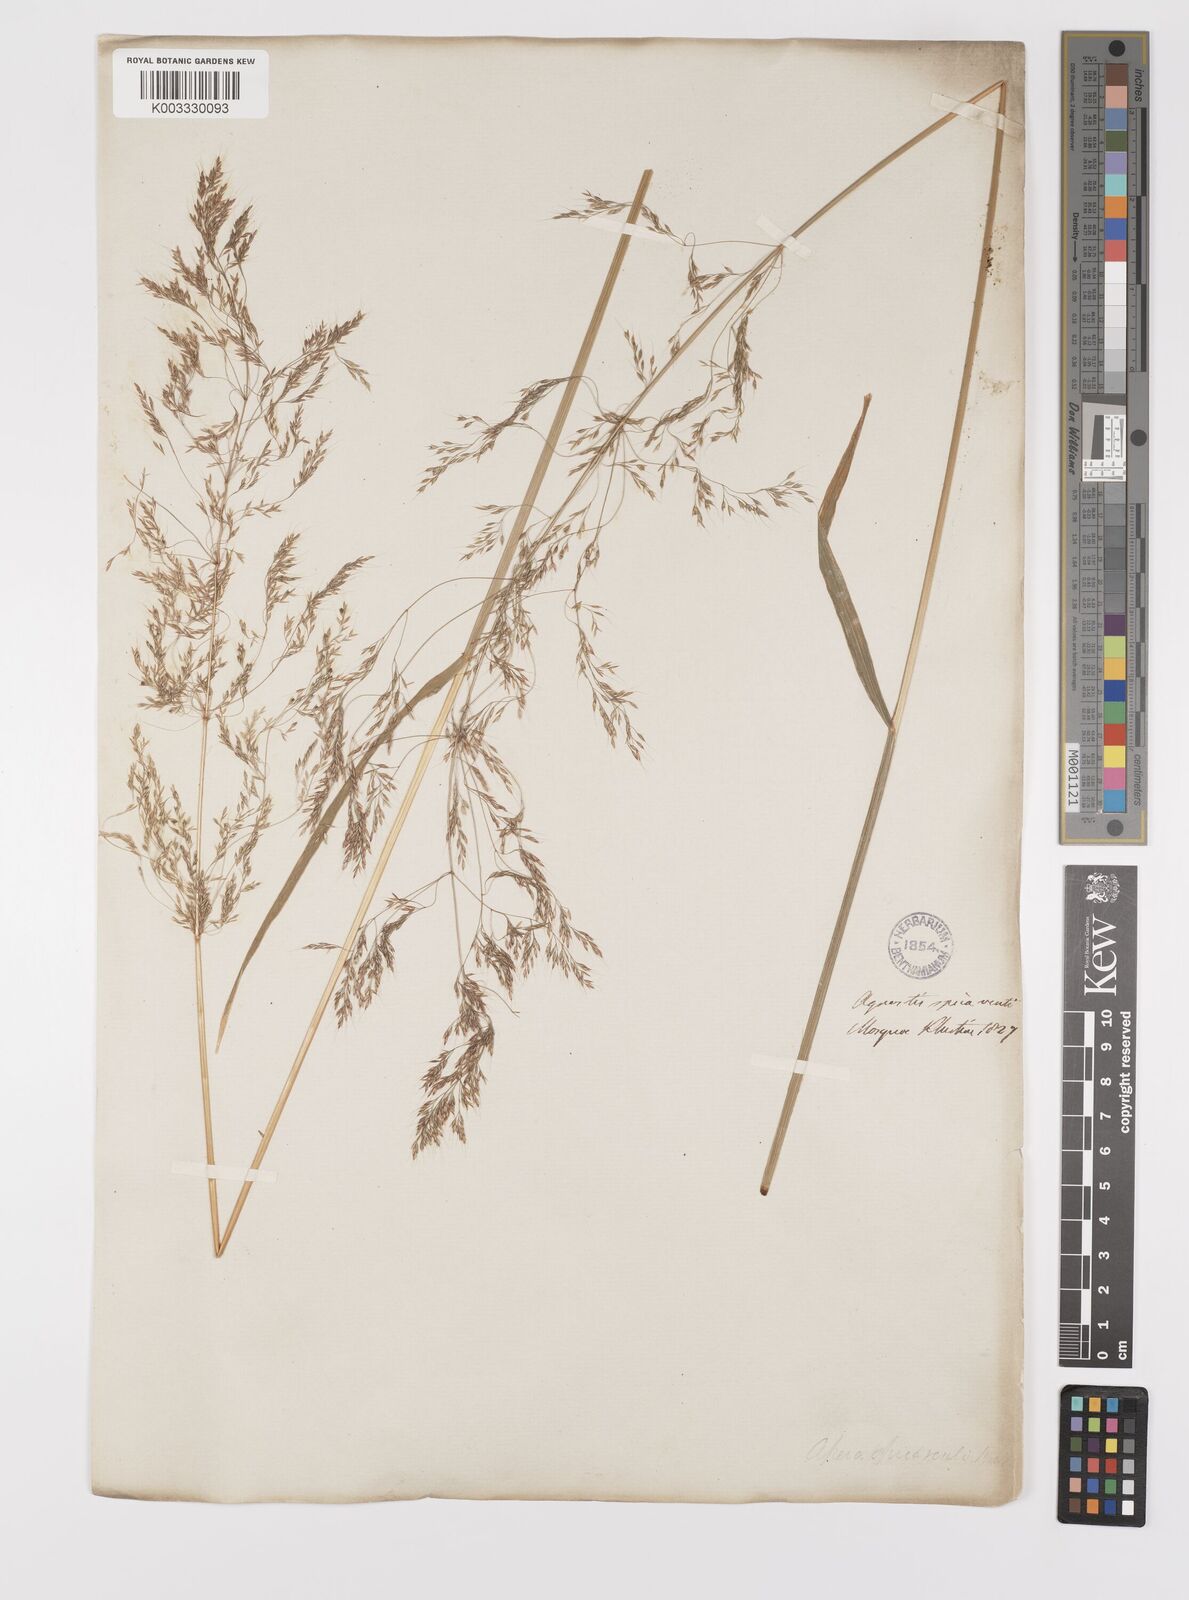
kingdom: Plantae
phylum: Tracheophyta
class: Liliopsida
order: Poales
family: Poaceae
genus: Apera
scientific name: Apera spica-venti
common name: Loose silky-bent
